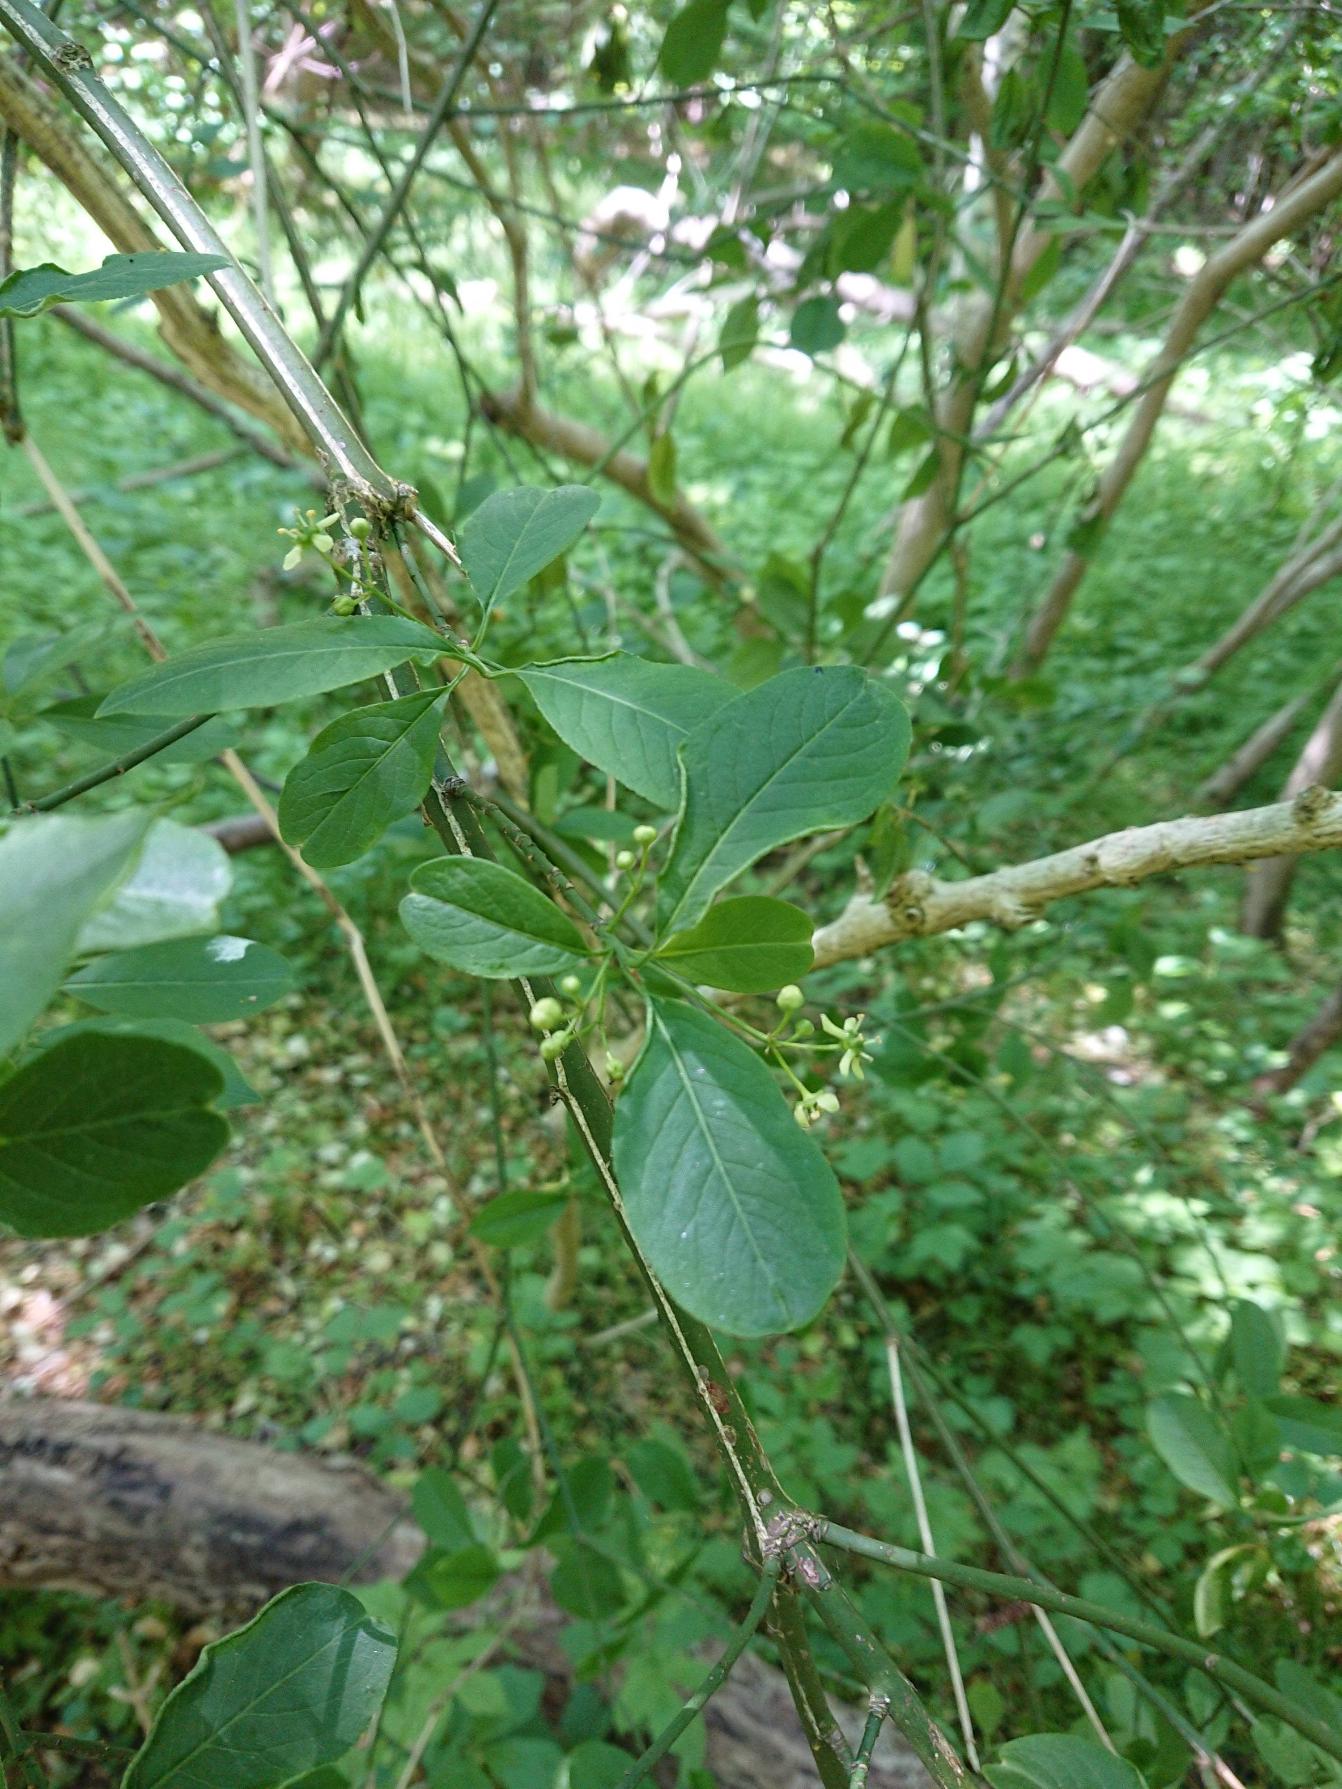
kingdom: Plantae
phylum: Tracheophyta
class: Magnoliopsida
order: Celastrales
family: Celastraceae
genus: Euonymus
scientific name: Euonymus europaeus
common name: Benved
